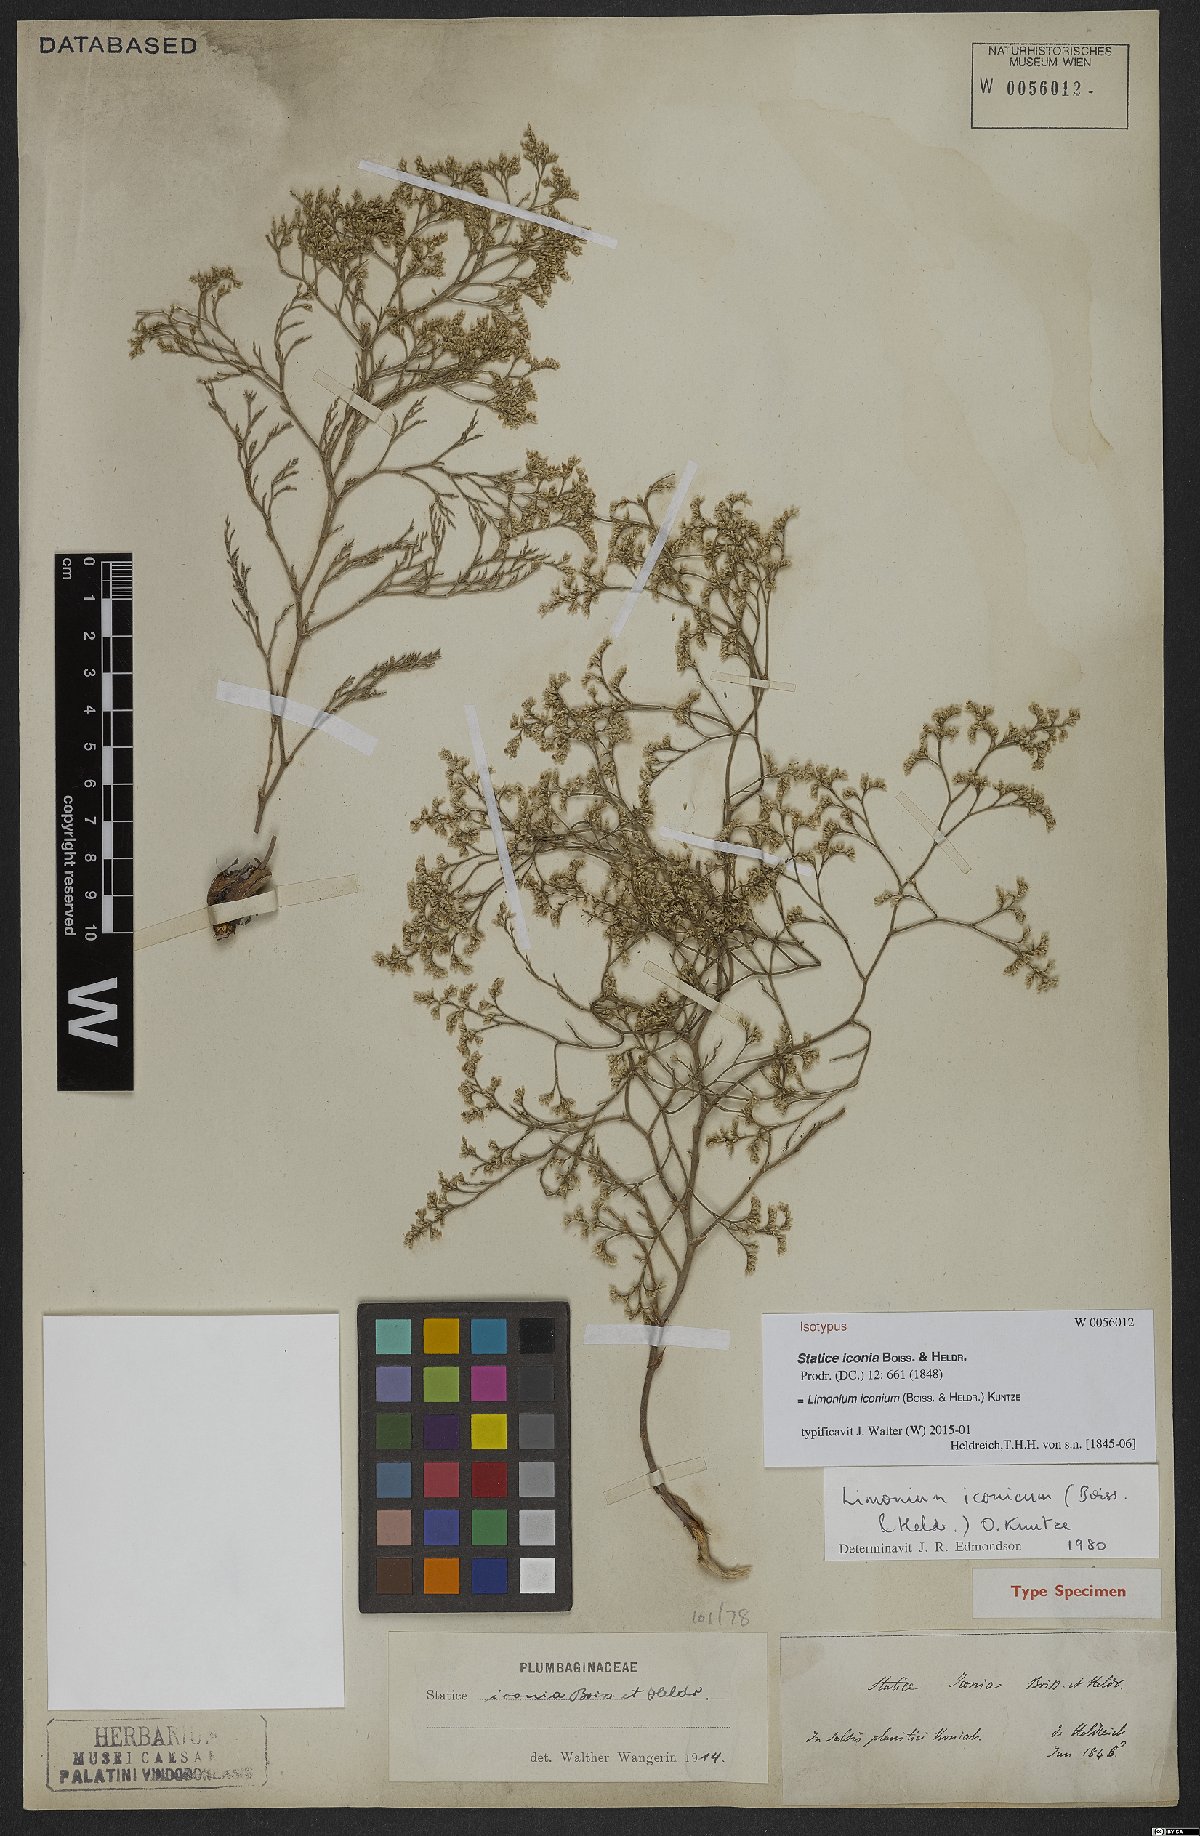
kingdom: Plantae
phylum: Tracheophyta
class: Magnoliopsida
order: Caryophyllales
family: Plumbaginaceae
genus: Limonium
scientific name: Limonium iconium
